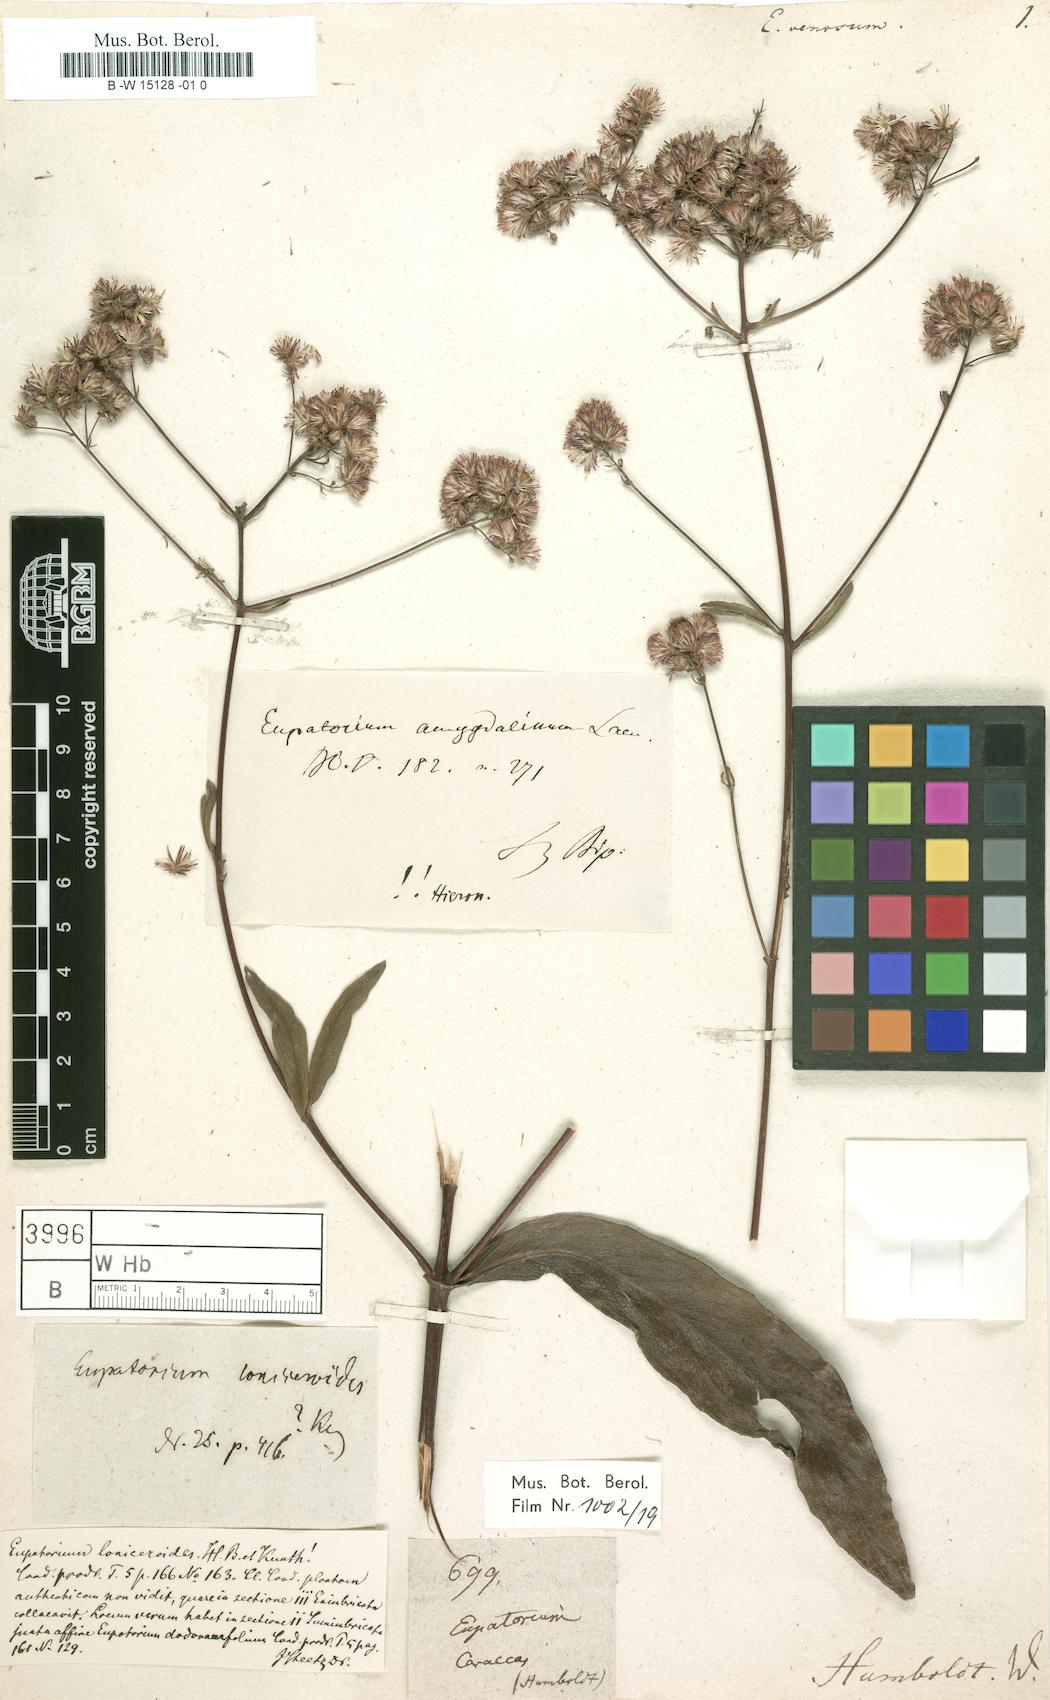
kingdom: Plantae
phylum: Tracheophyta
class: Magnoliopsida
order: Asterales
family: Asteraceae
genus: Chromolaena
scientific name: Chromolaena squalida
